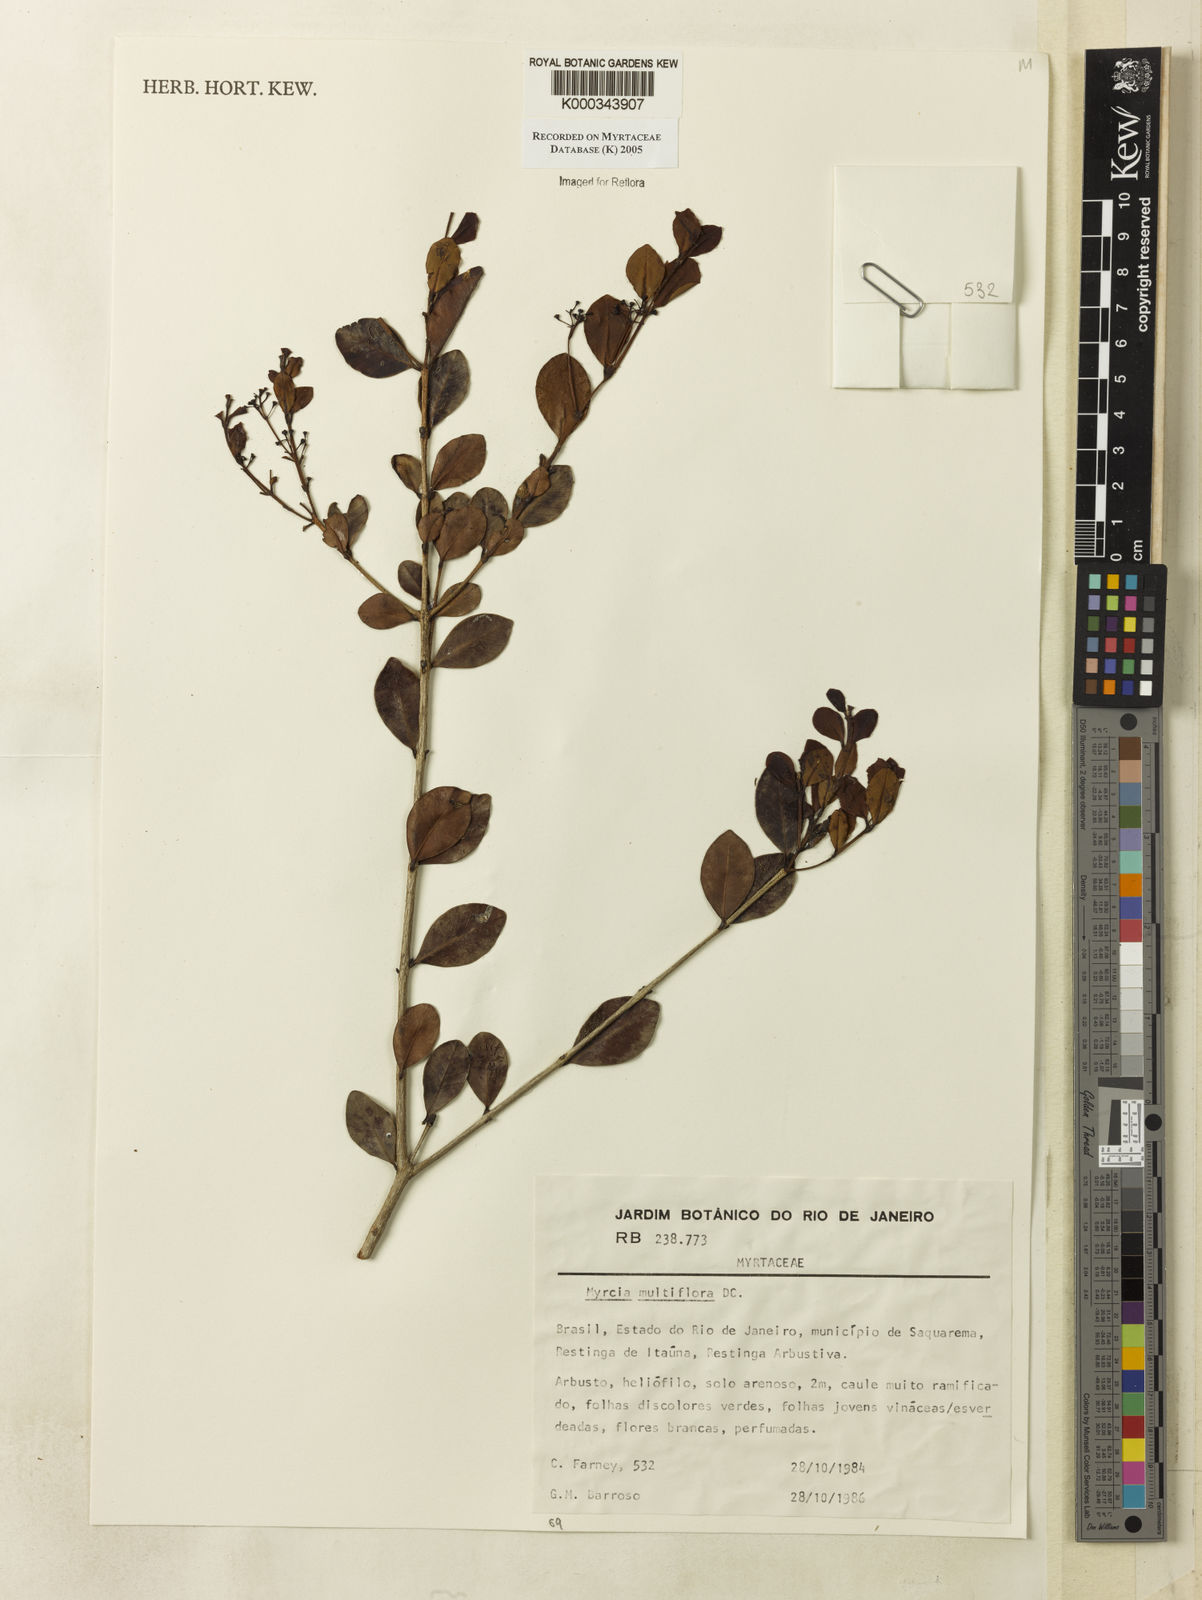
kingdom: Plantae
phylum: Tracheophyta
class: Magnoliopsida
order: Myrtales
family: Myrtaceae
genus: Myrcia
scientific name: Myrcia multiflora
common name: Pedra hume
